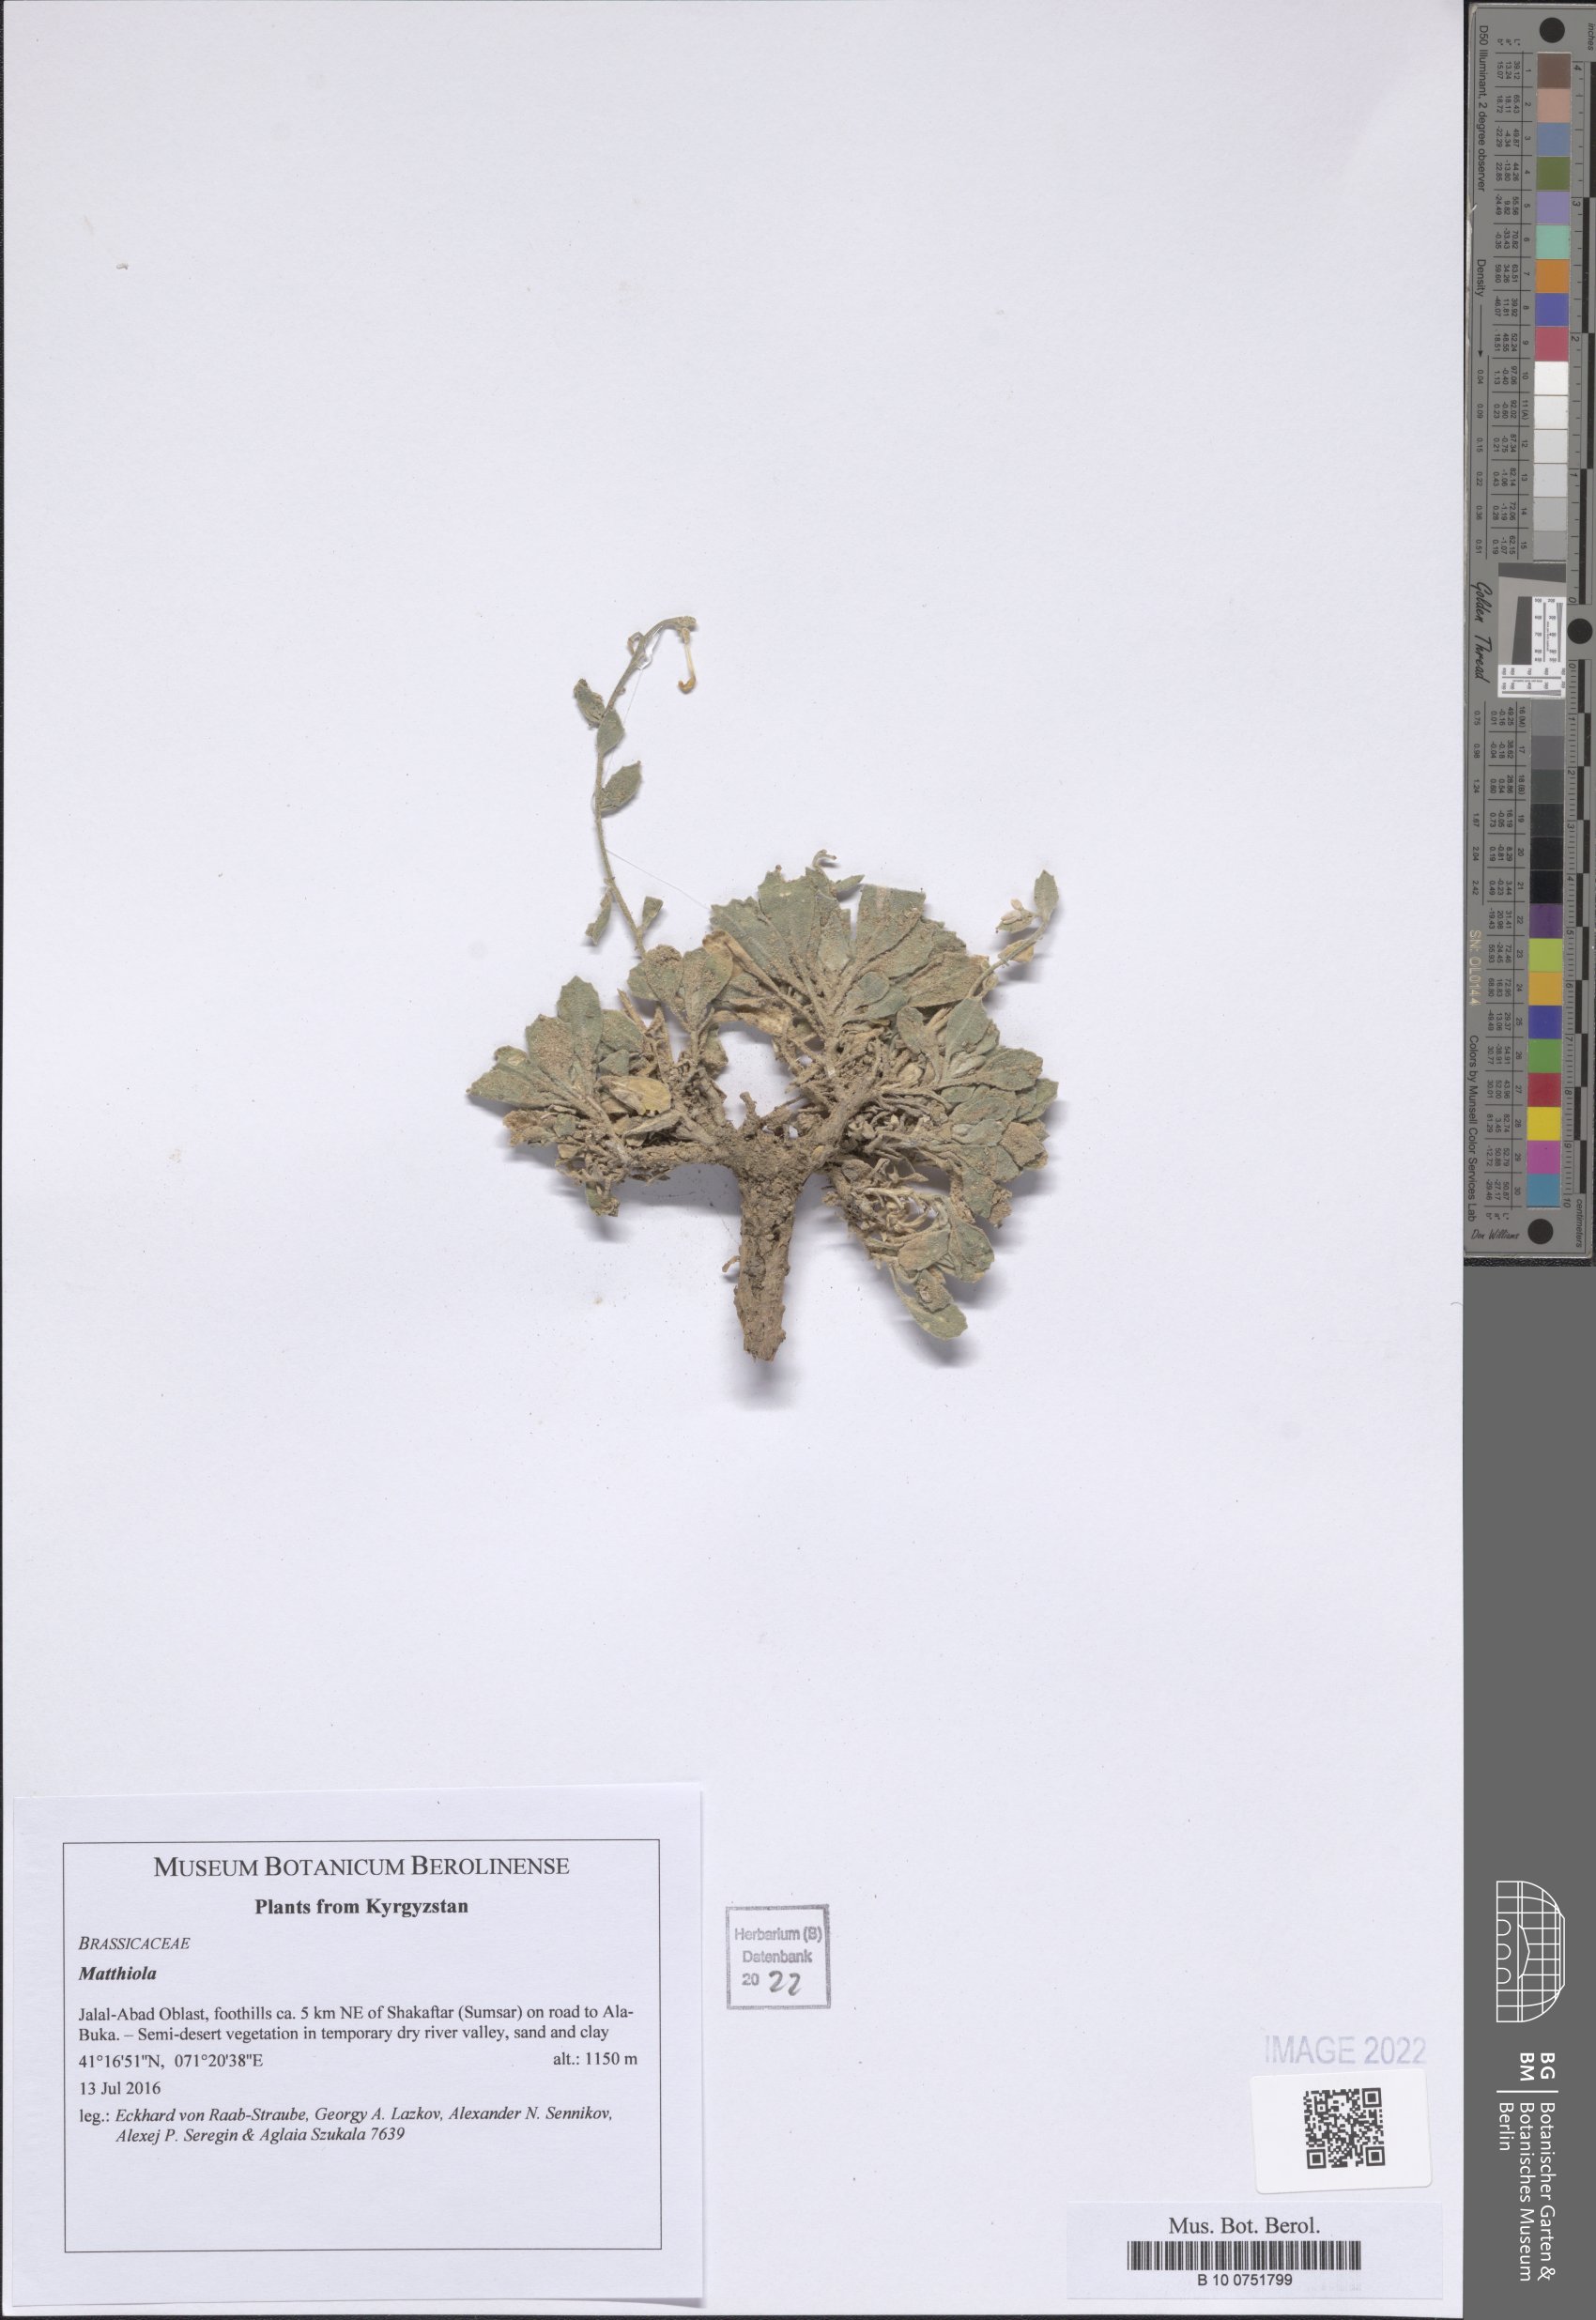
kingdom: Plantae
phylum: Tracheophyta
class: Magnoliopsida
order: Brassicales
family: Brassicaceae
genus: Matthiola
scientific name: Matthiola
